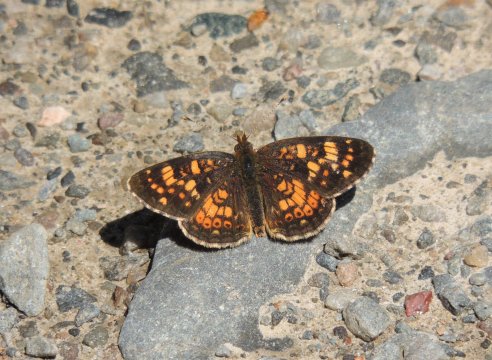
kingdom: Animalia
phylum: Arthropoda
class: Insecta
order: Lepidoptera
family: Nymphalidae
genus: Phyciodes
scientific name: Phyciodes tharos
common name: Field Crescent
